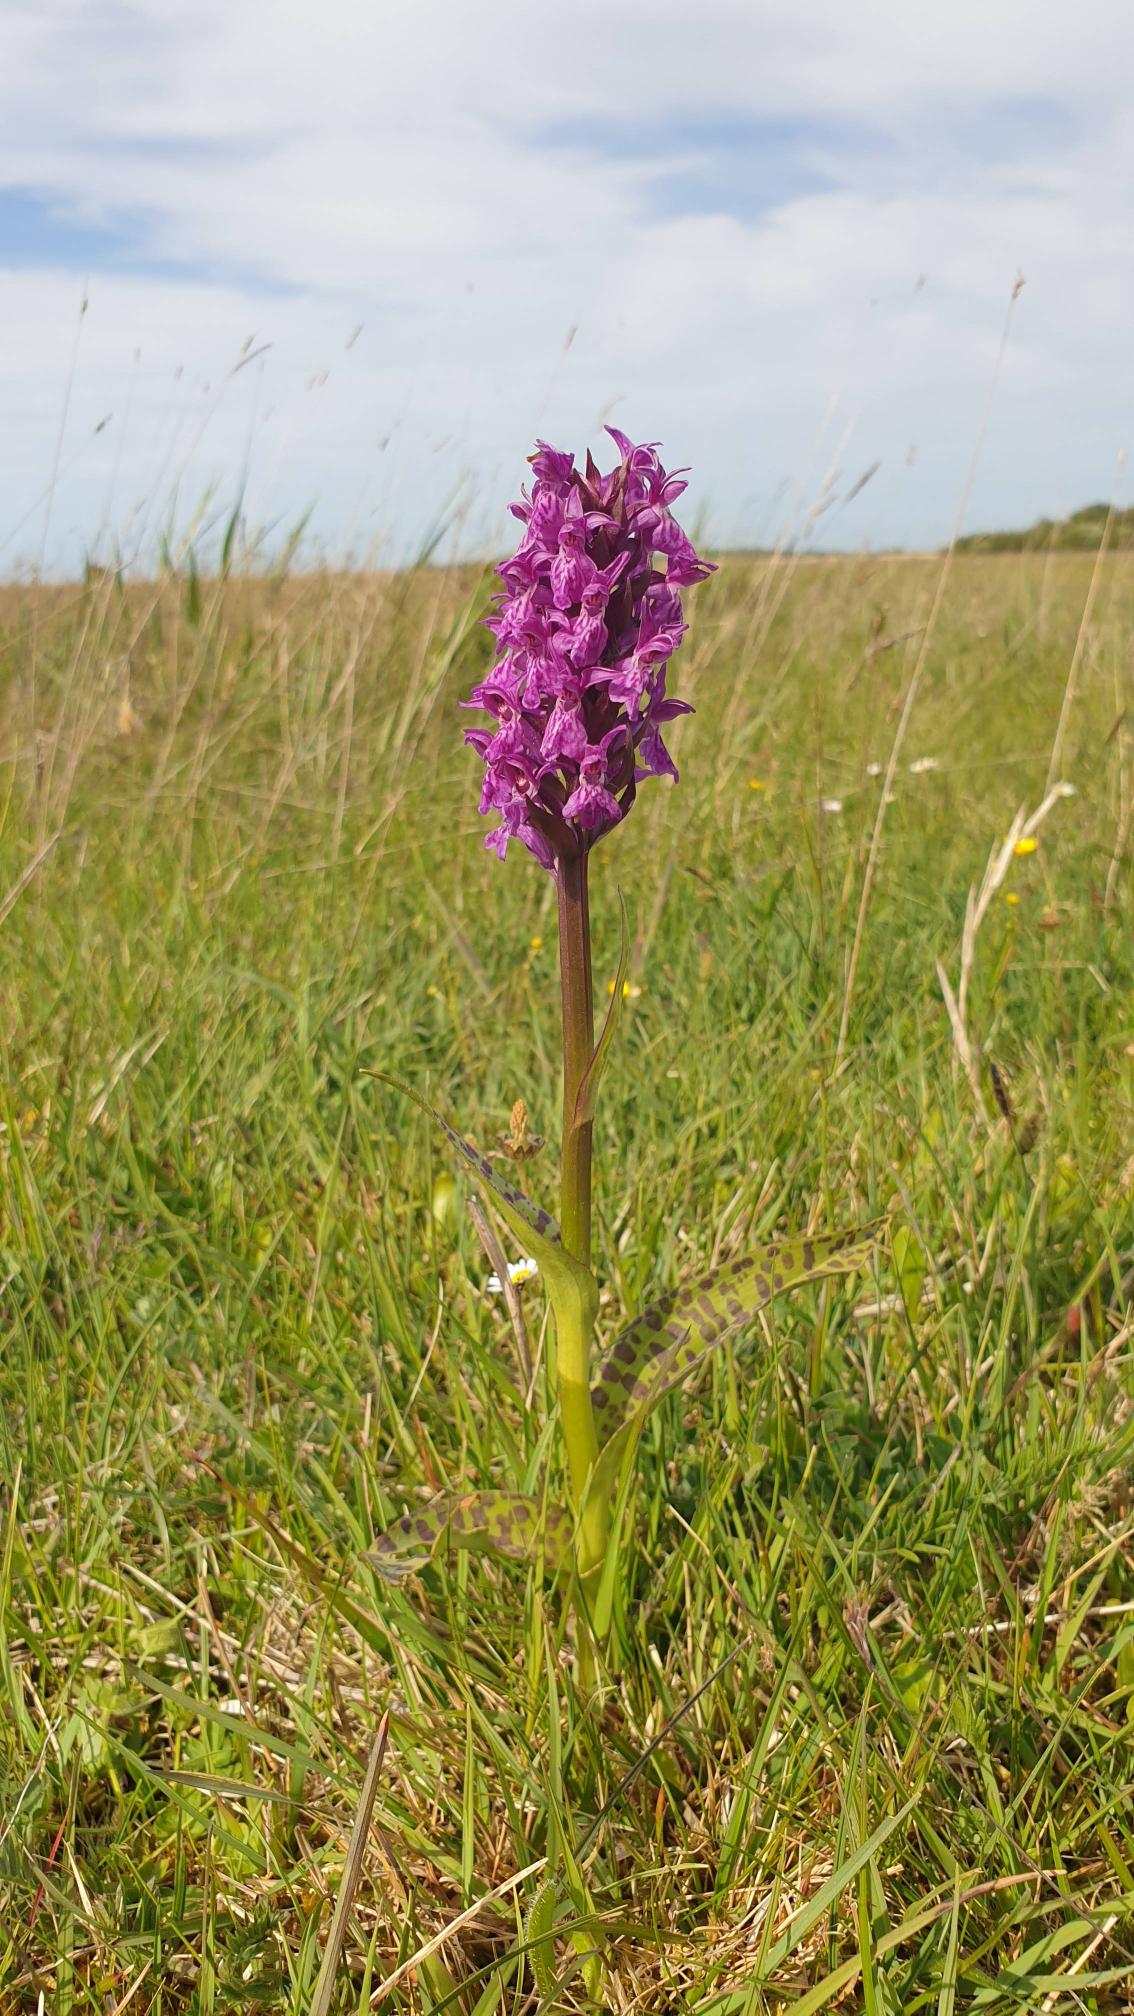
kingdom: Plantae
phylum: Tracheophyta
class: Liliopsida
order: Asparagales
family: Orchidaceae
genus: Dactylorhiza
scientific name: Dactylorhiza majalis
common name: Maj-gøgeurt
